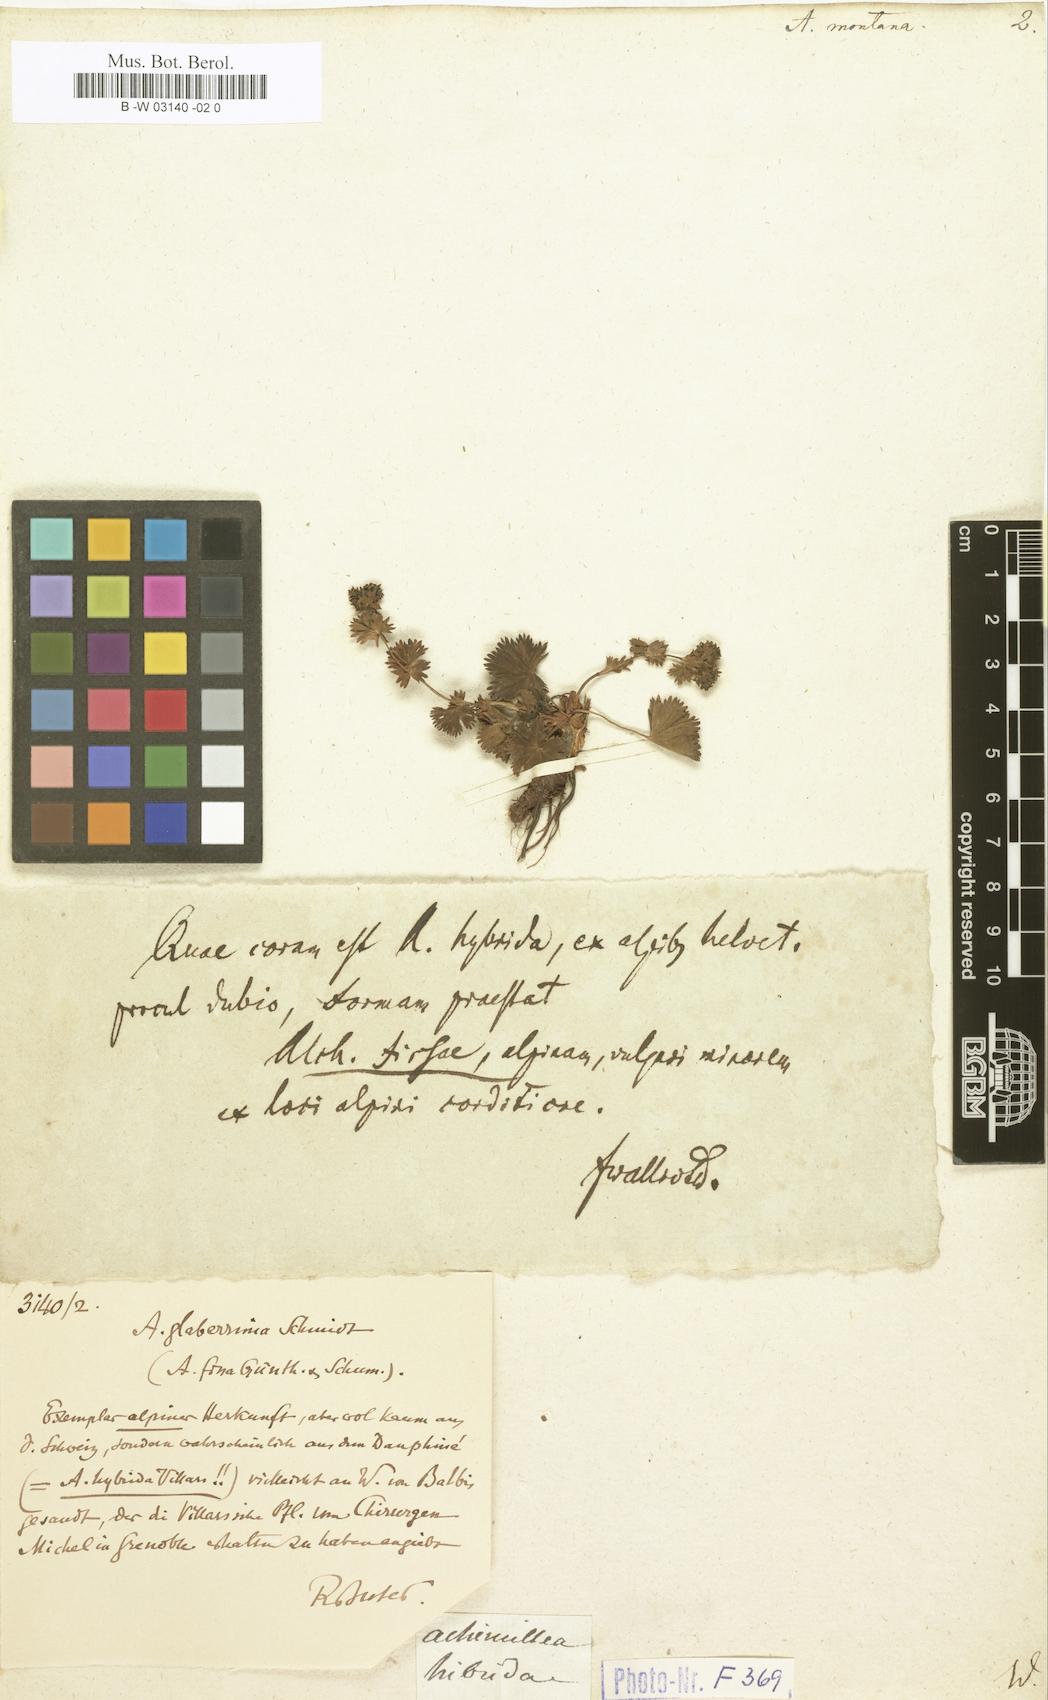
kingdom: Plantae
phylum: Tracheophyta
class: Magnoliopsida
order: Rosales
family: Rosaceae
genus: Alchemilla
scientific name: Alchemilla connivens
